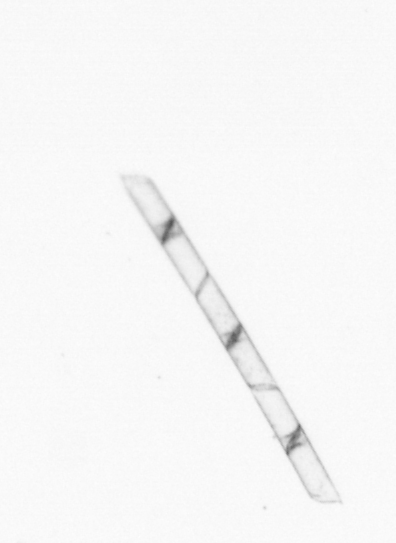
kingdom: Chromista
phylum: Ochrophyta
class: Bacillariophyceae
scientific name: Bacillariophyceae
